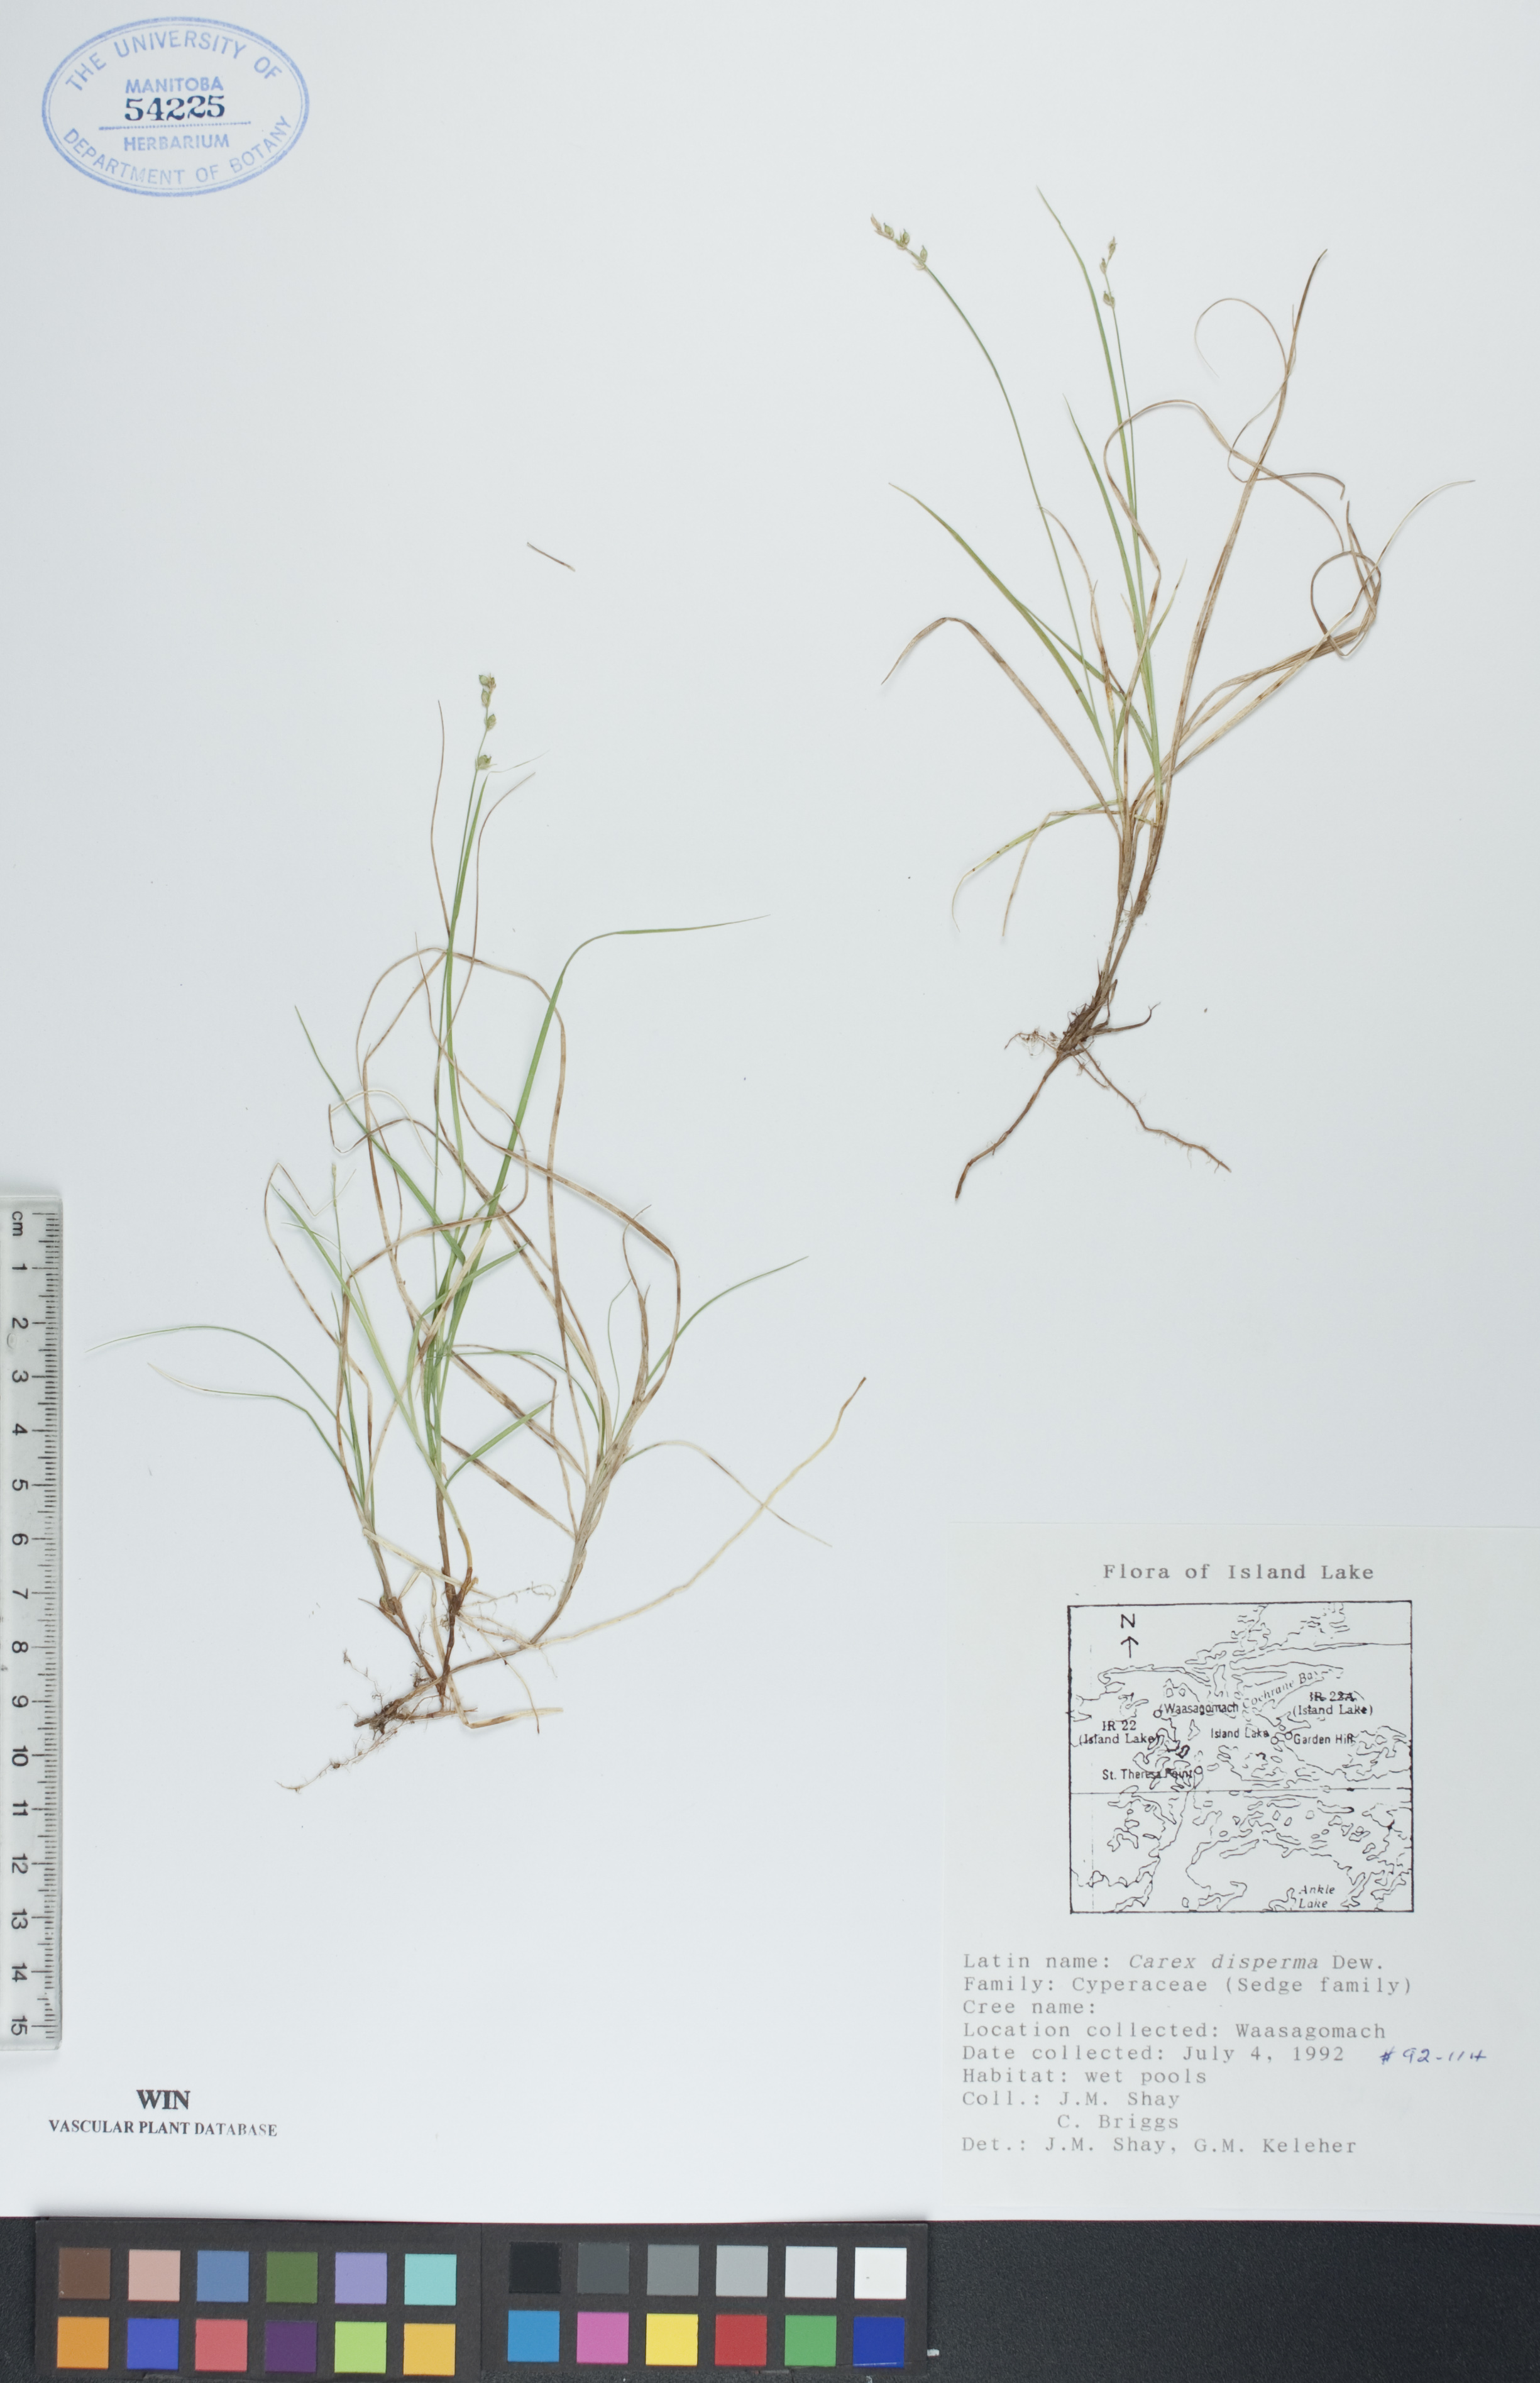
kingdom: Plantae
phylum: Tracheophyta
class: Liliopsida
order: Poales
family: Cyperaceae
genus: Carex
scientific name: Carex disperma
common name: Short-leaved sedge
